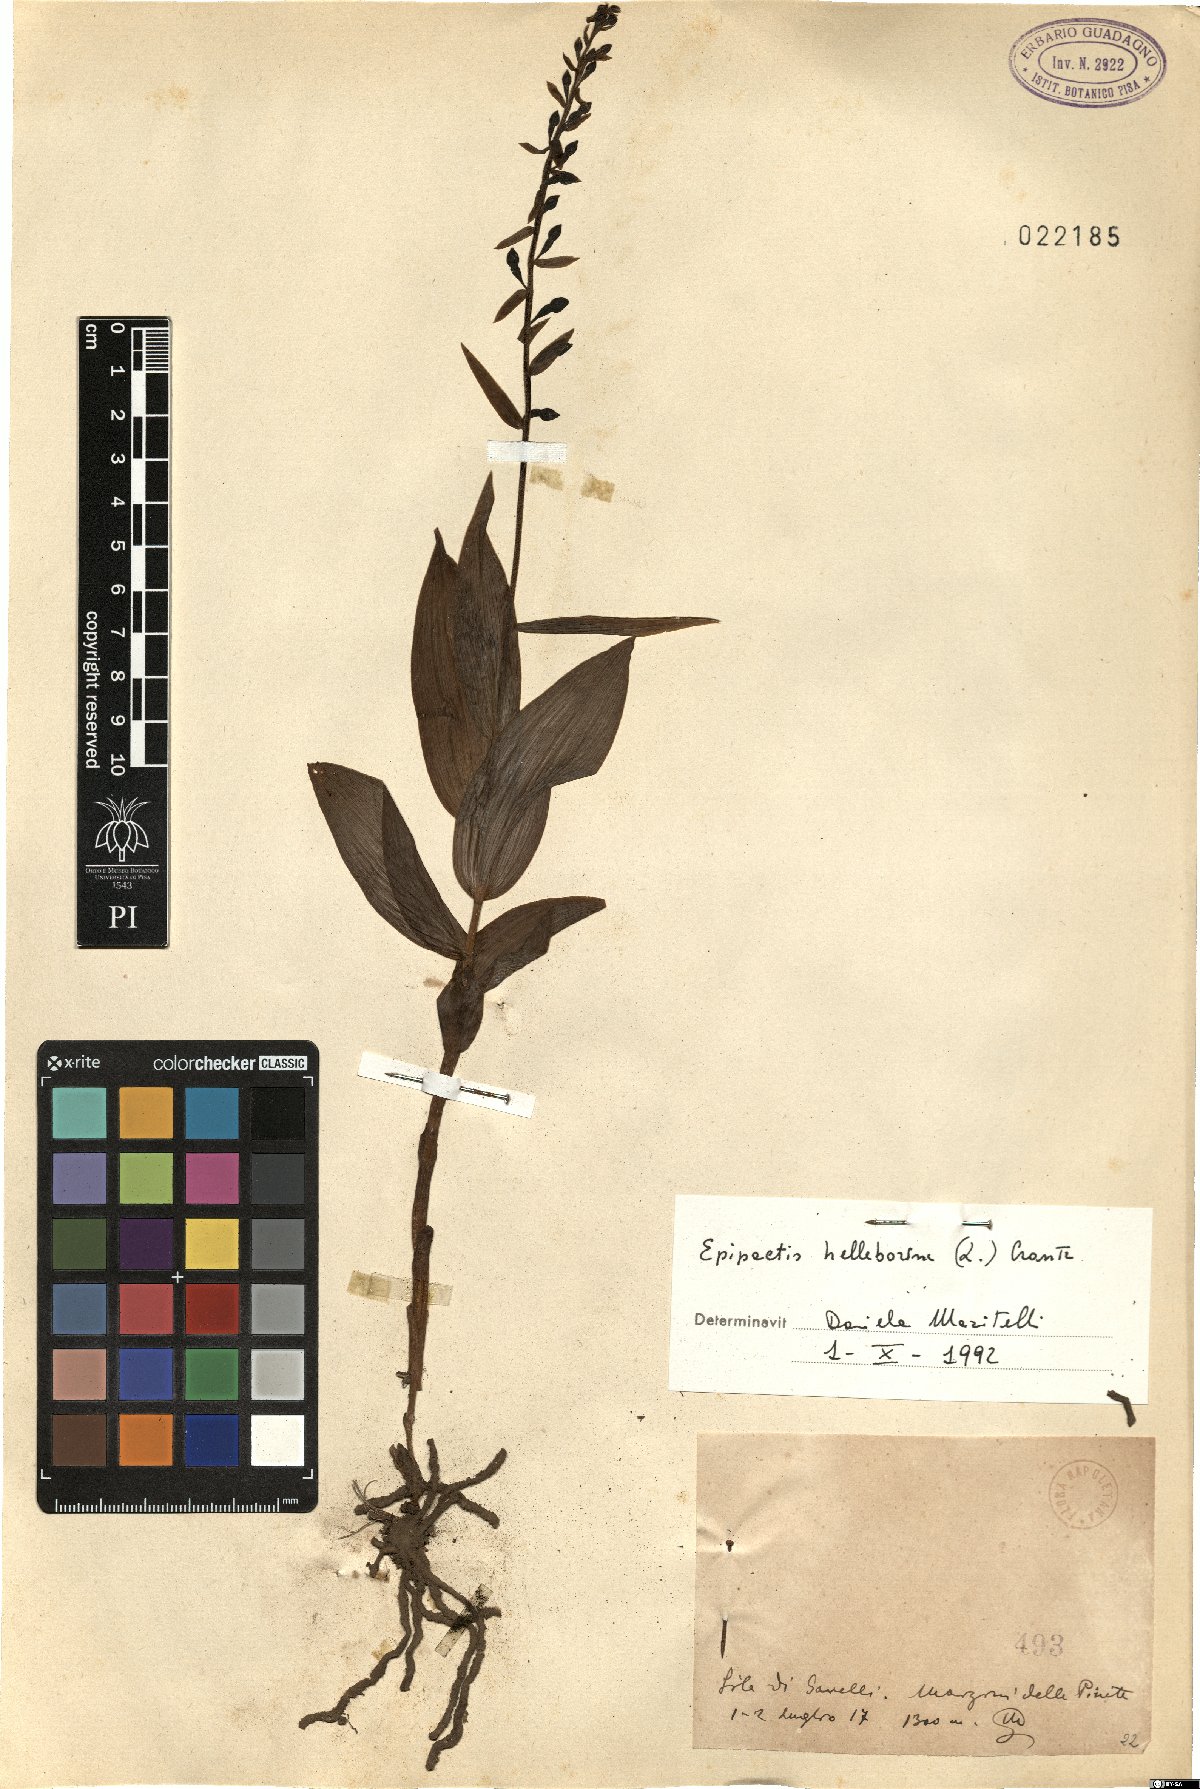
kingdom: Plantae
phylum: Tracheophyta
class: Liliopsida
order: Asparagales
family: Orchidaceae
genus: Epipactis
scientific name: Epipactis helleborine
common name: Broad-leaved helleborine
